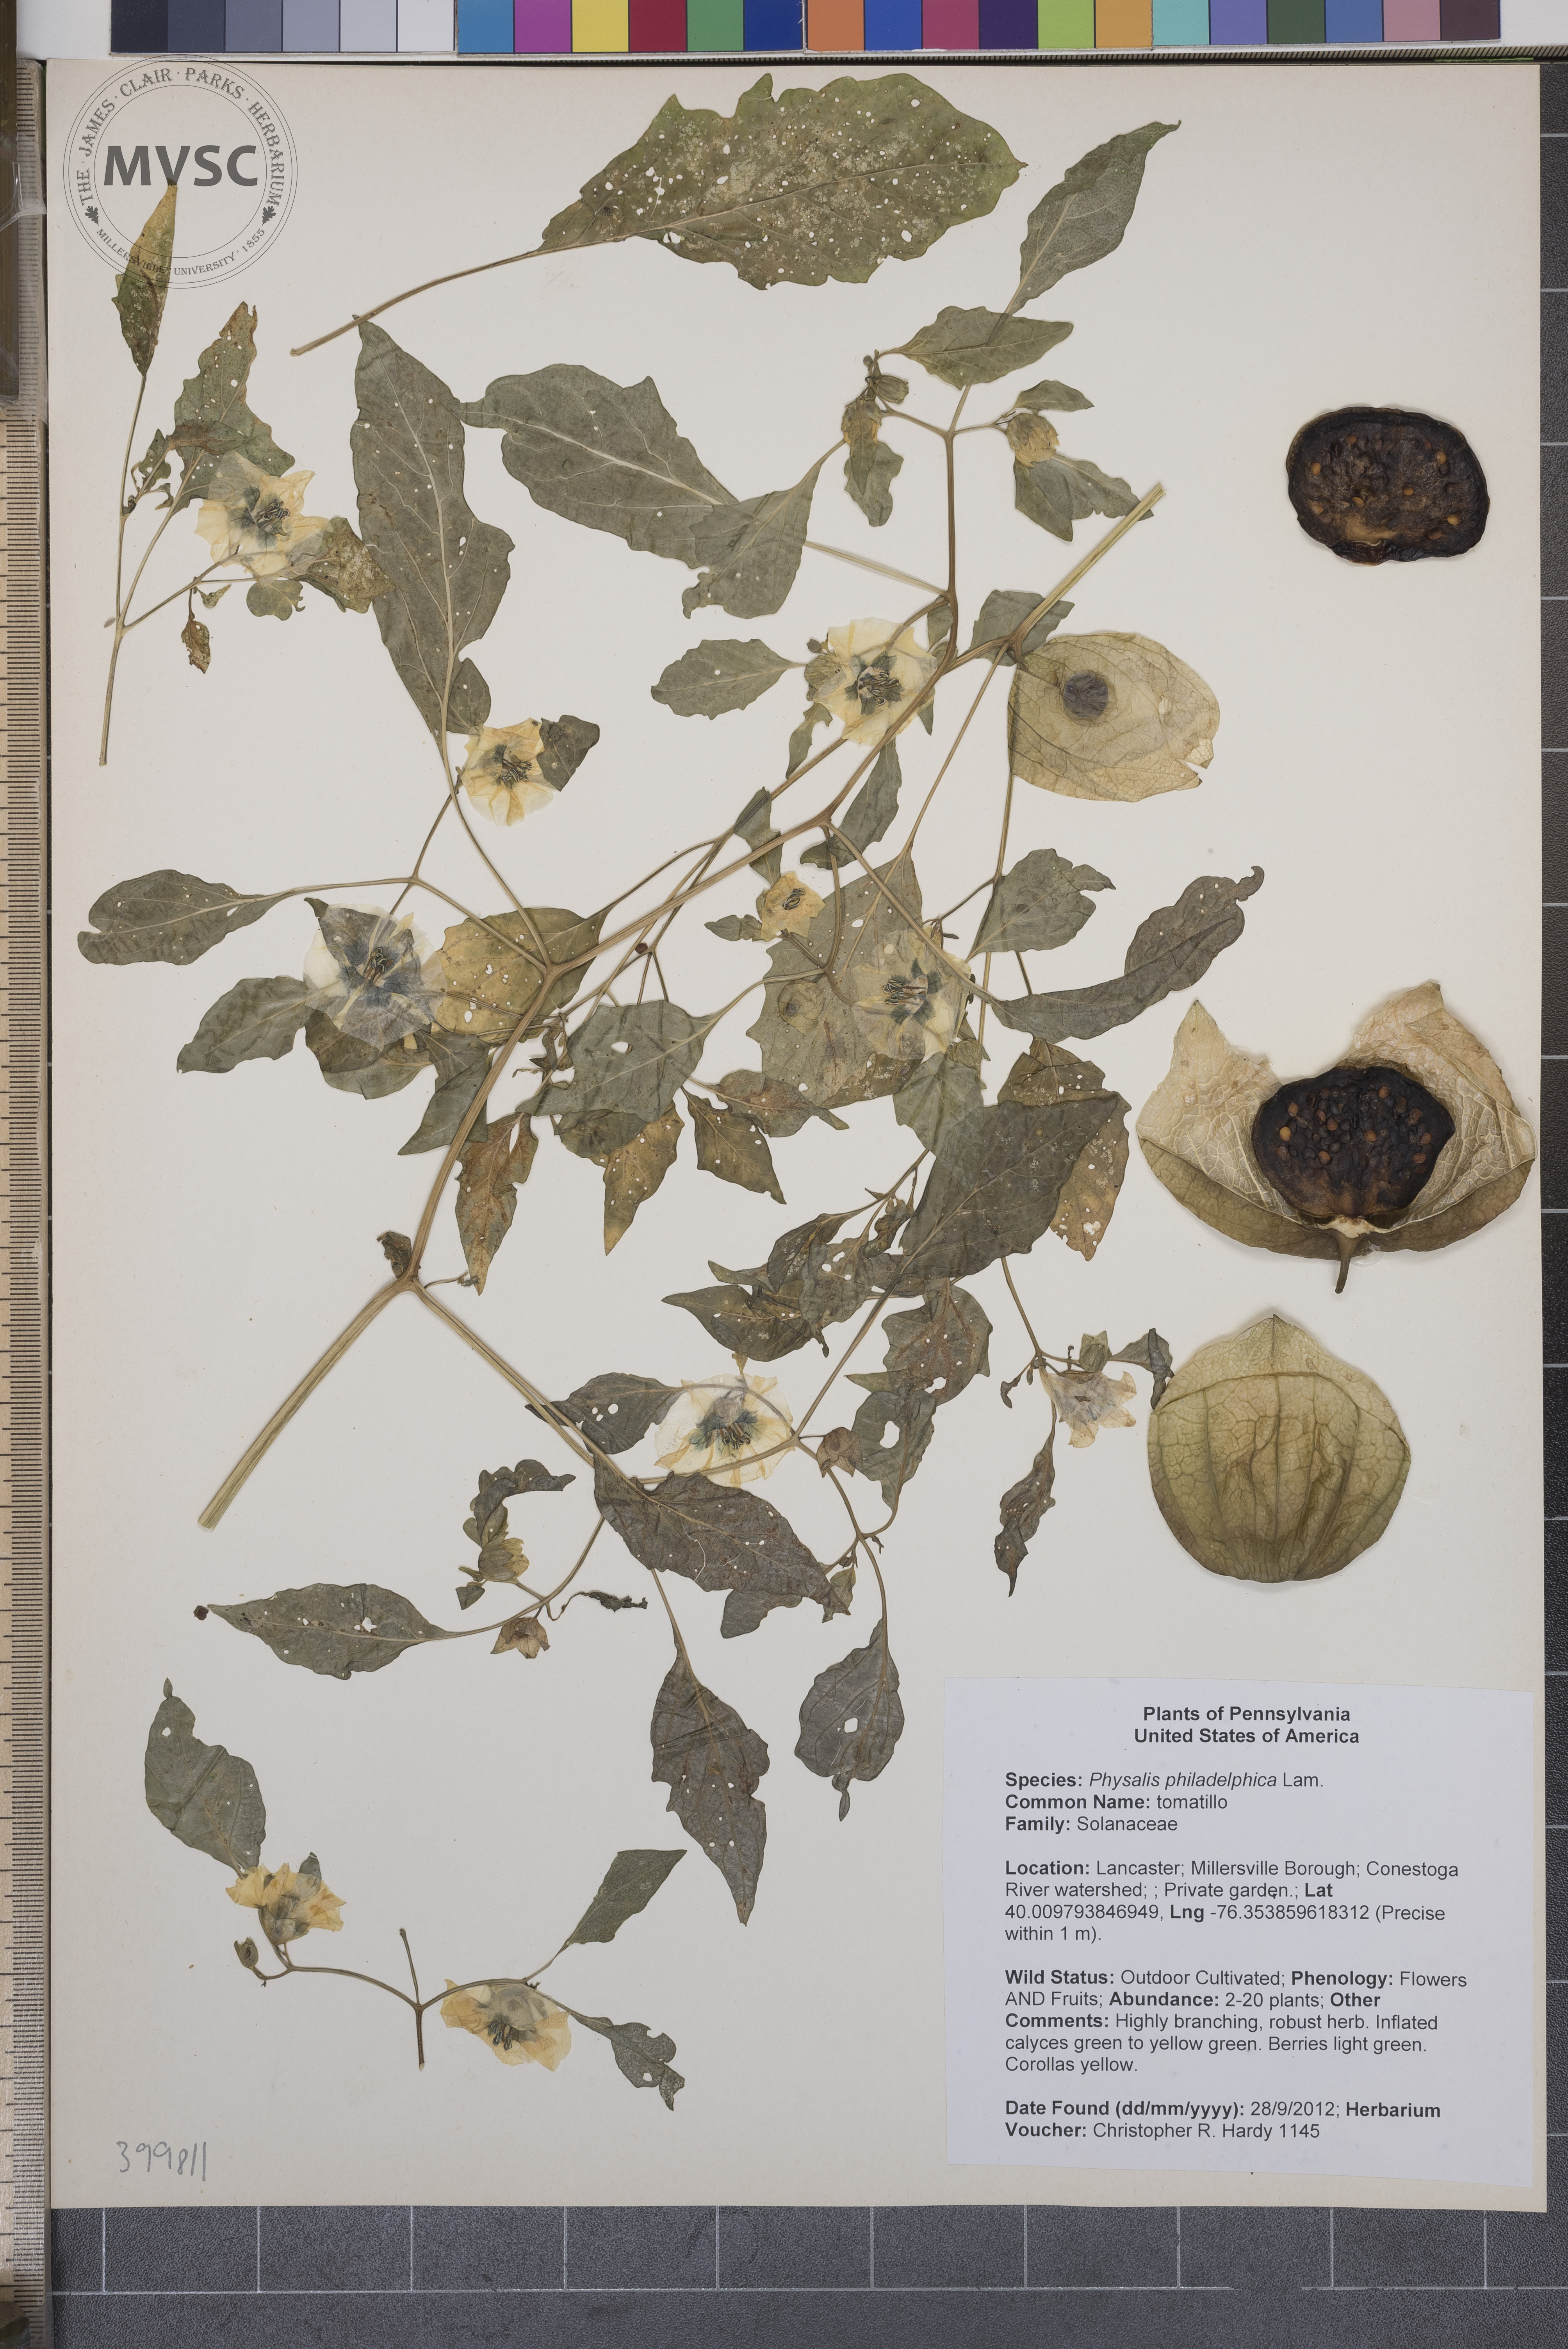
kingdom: Plantae
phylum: Tracheophyta
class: Magnoliopsida
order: Solanales
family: Solanaceae
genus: Physalis
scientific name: Physalis philadelphica
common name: tomatillo
